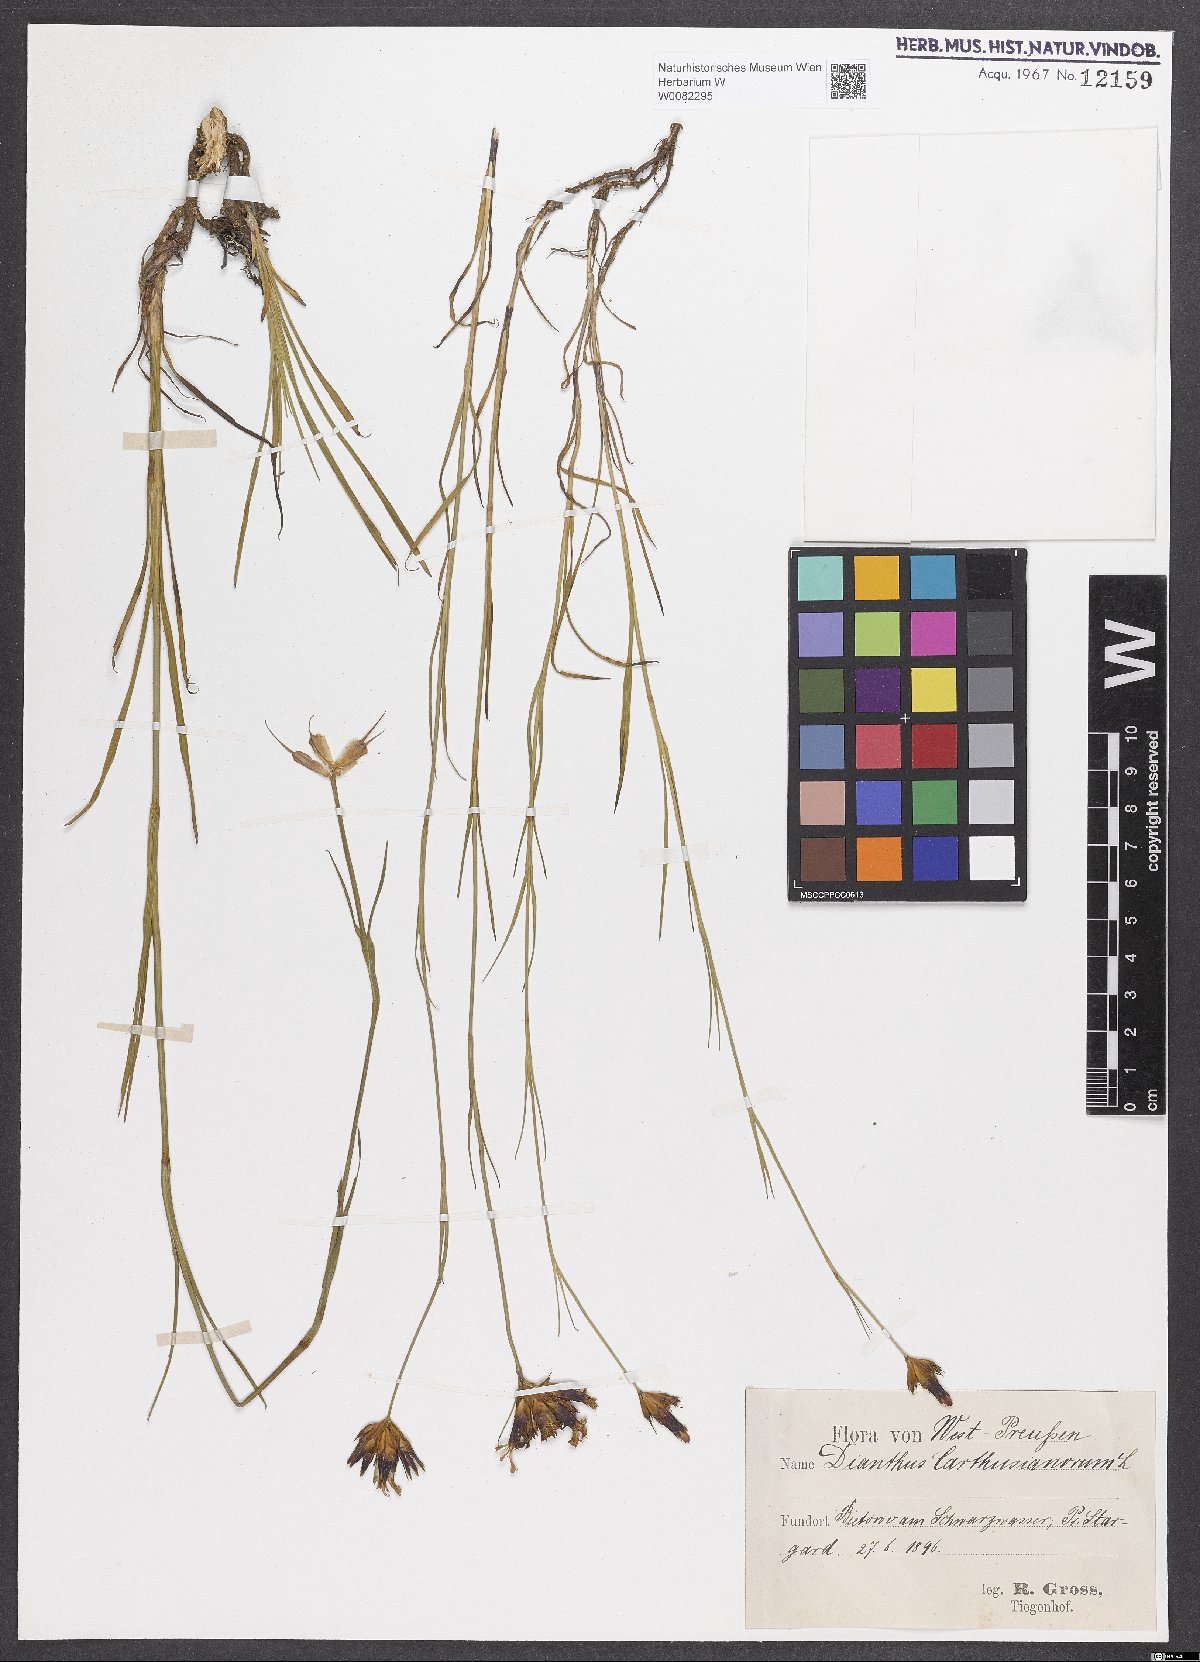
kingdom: Plantae
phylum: Tracheophyta
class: Magnoliopsida
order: Caryophyllales
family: Caryophyllaceae
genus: Dianthus
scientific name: Dianthus carthusianorum
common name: Carthusian pink
